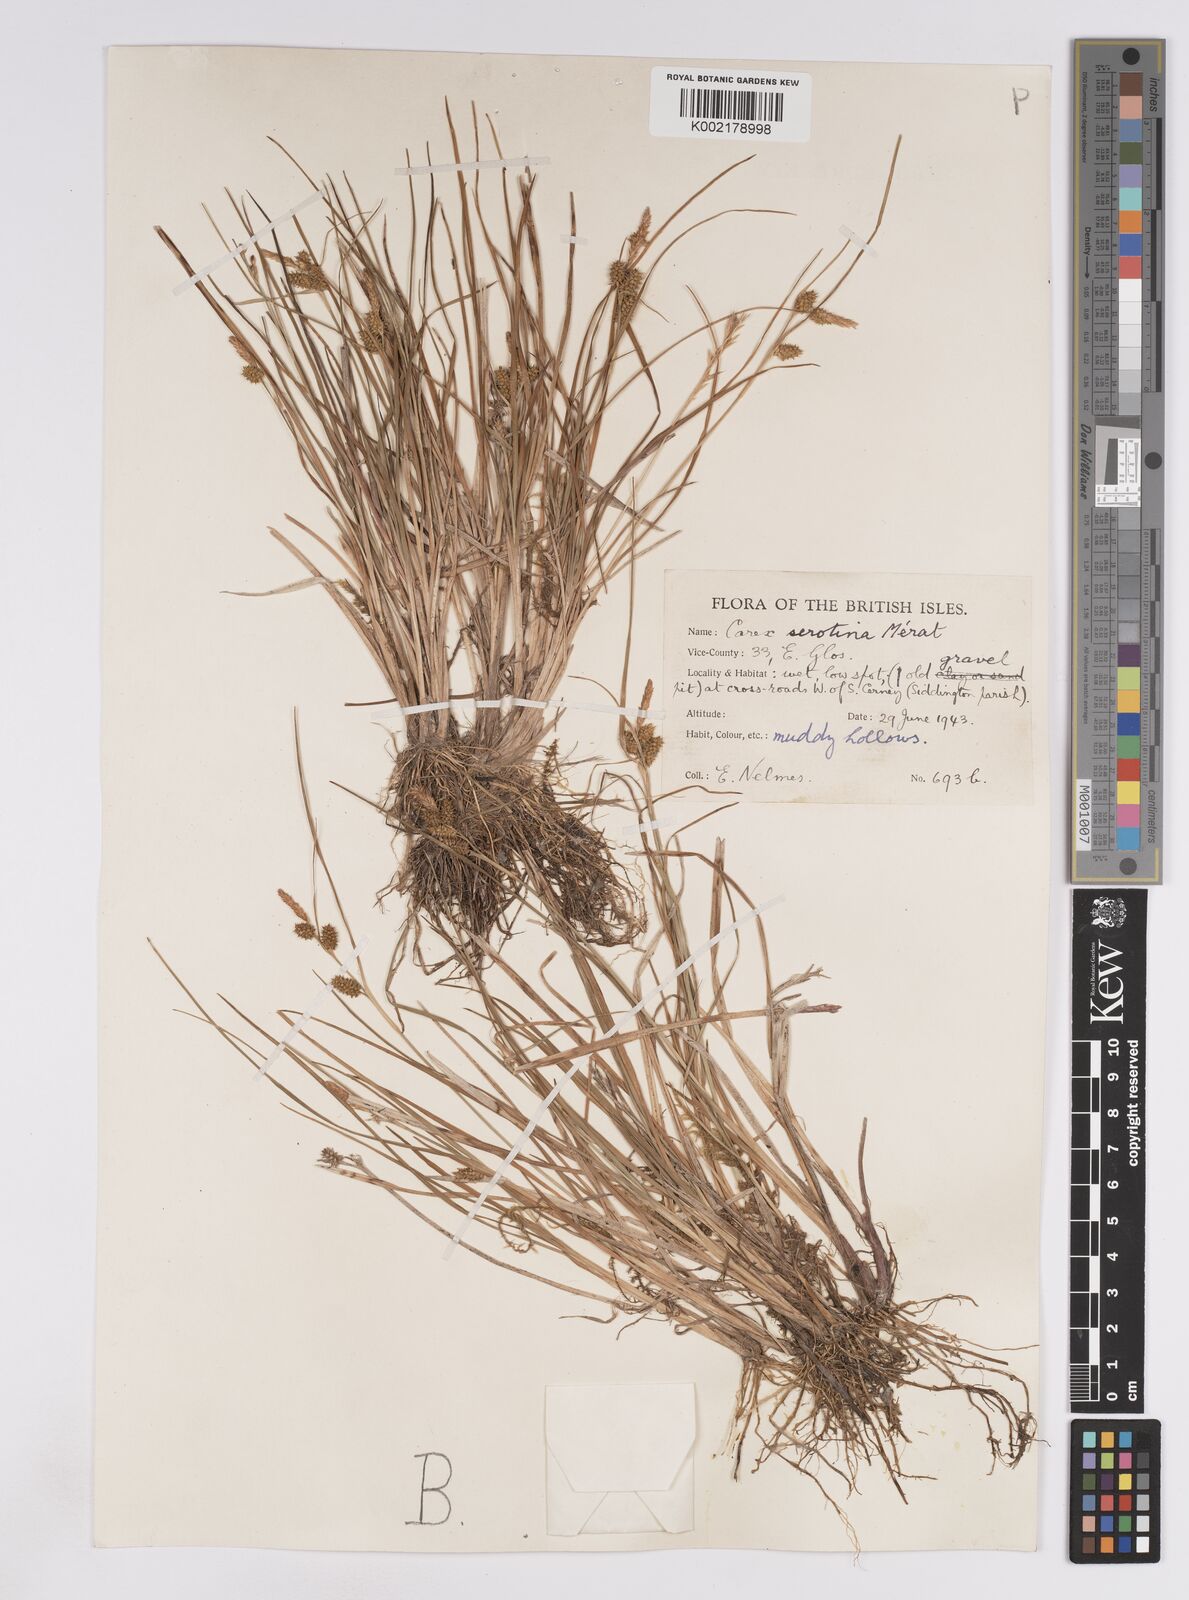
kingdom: Plantae
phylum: Tracheophyta
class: Liliopsida
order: Poales
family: Cyperaceae
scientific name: Cyperaceae
